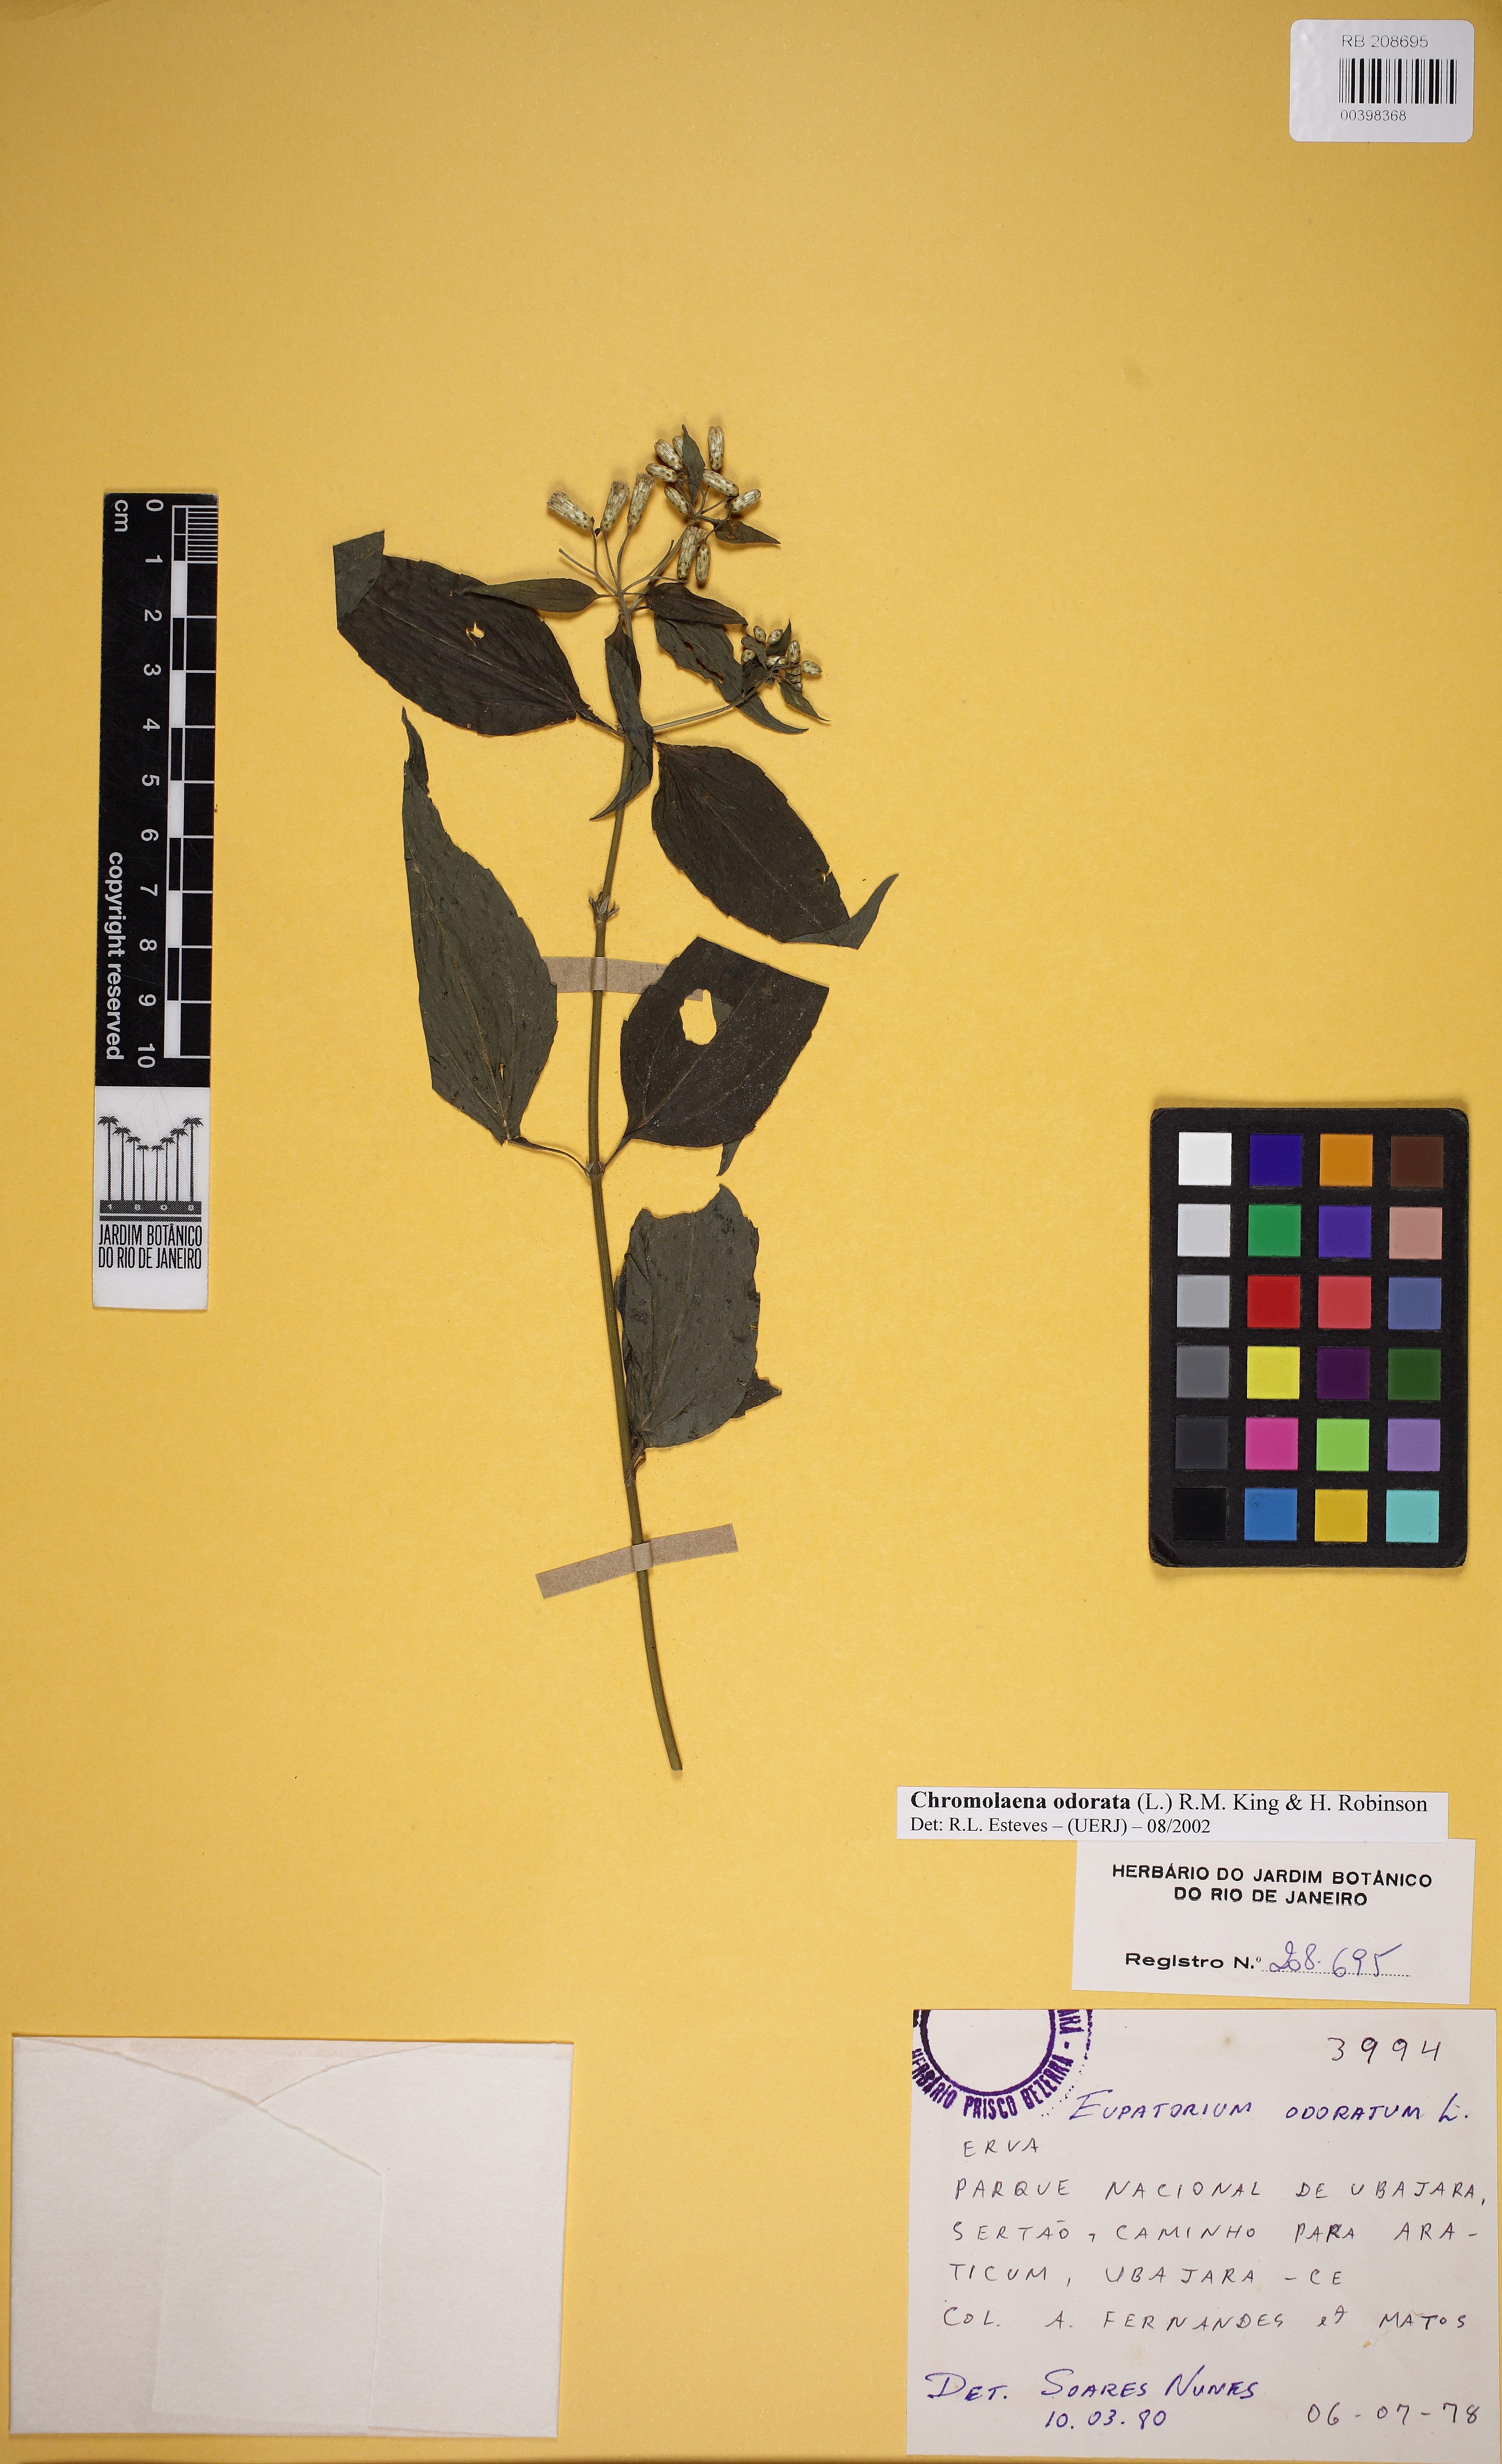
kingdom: Plantae
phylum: Tracheophyta
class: Magnoliopsida
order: Asterales
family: Asteraceae
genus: Chromolaena
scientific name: Chromolaena odorata
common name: Siamweed
